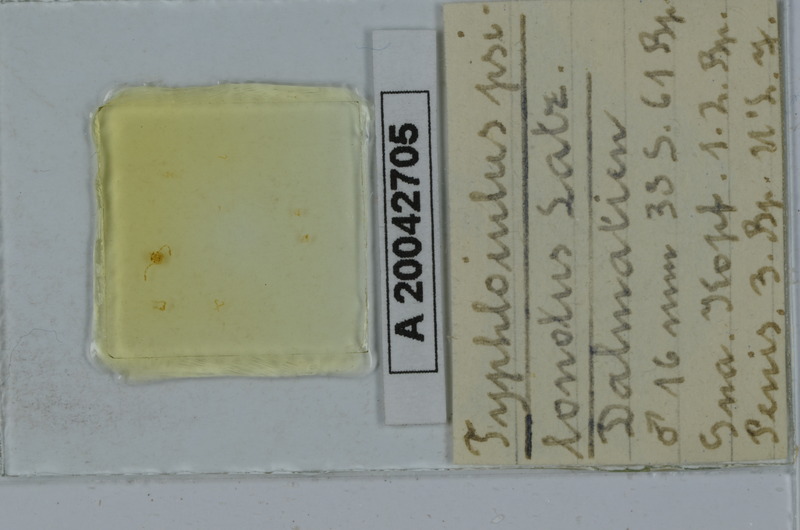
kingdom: Animalia
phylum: Arthropoda
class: Diplopoda
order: Julida
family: Julidae
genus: Typhloiulus
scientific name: Typhloiulus psilonotus
